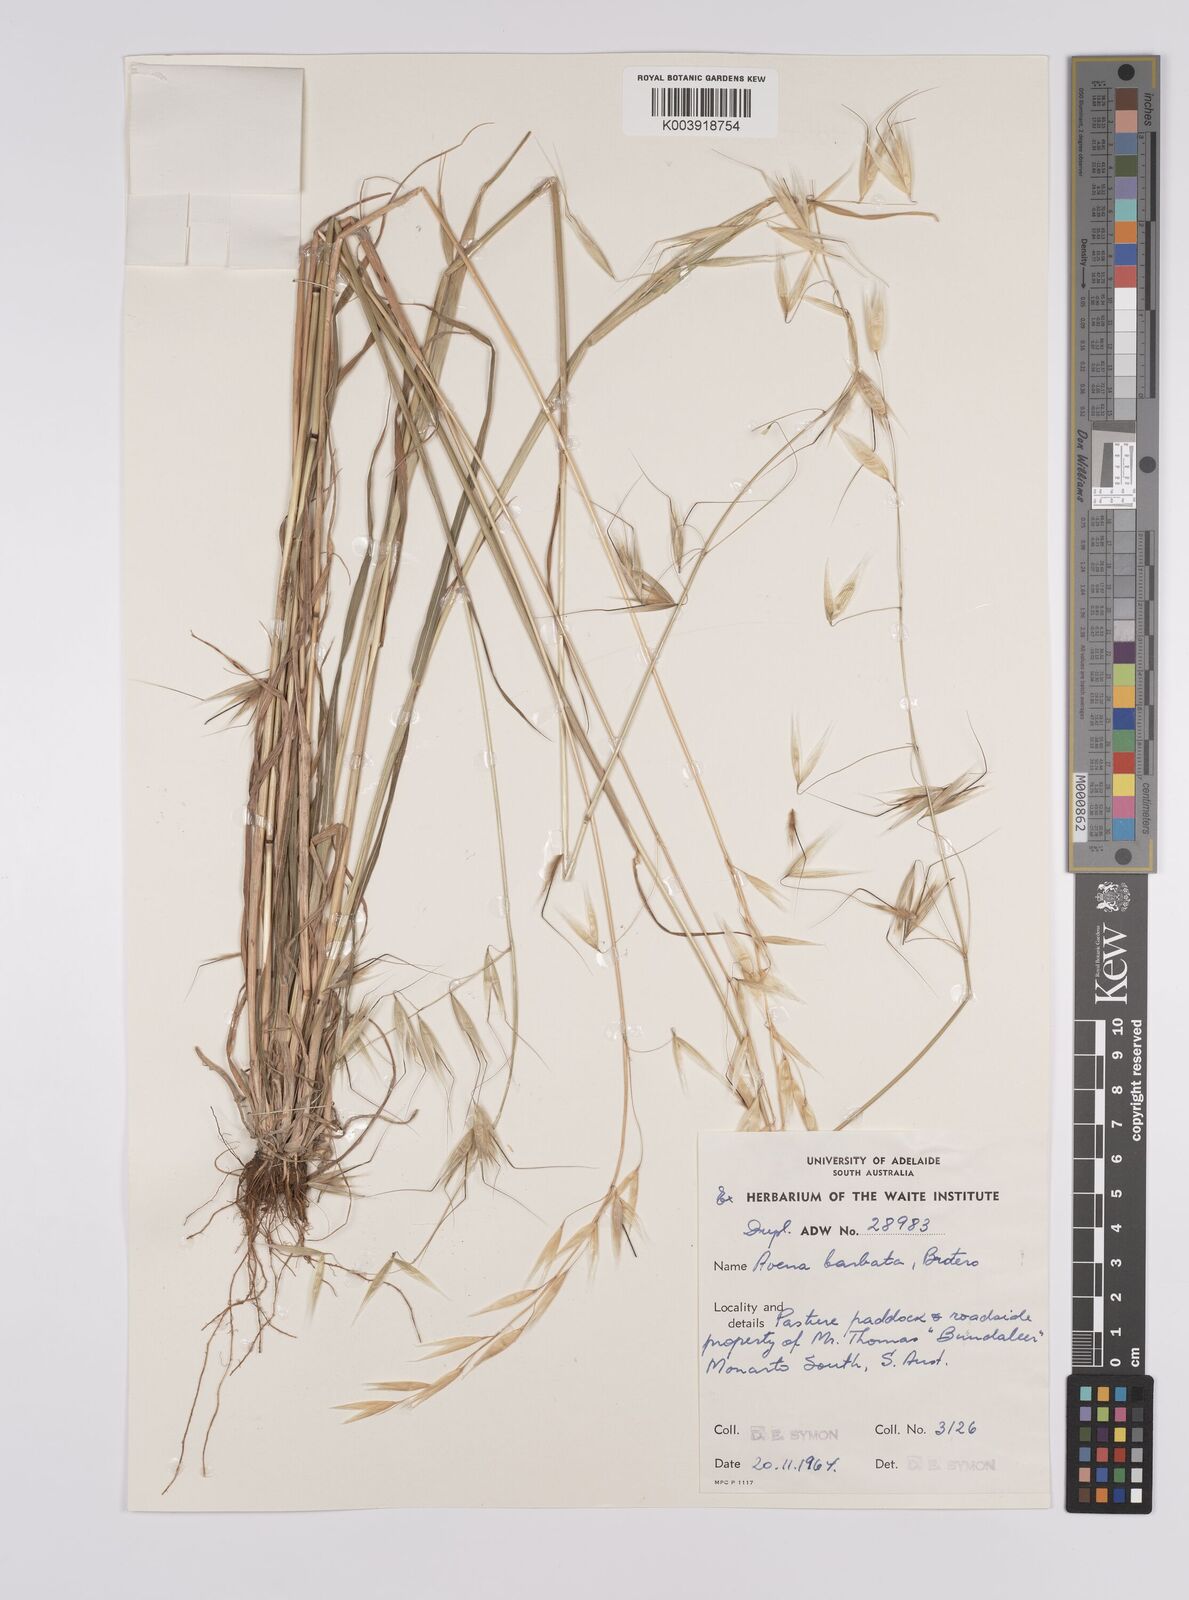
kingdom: Plantae
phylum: Tracheophyta
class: Liliopsida
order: Poales
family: Poaceae
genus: Avena
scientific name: Avena
